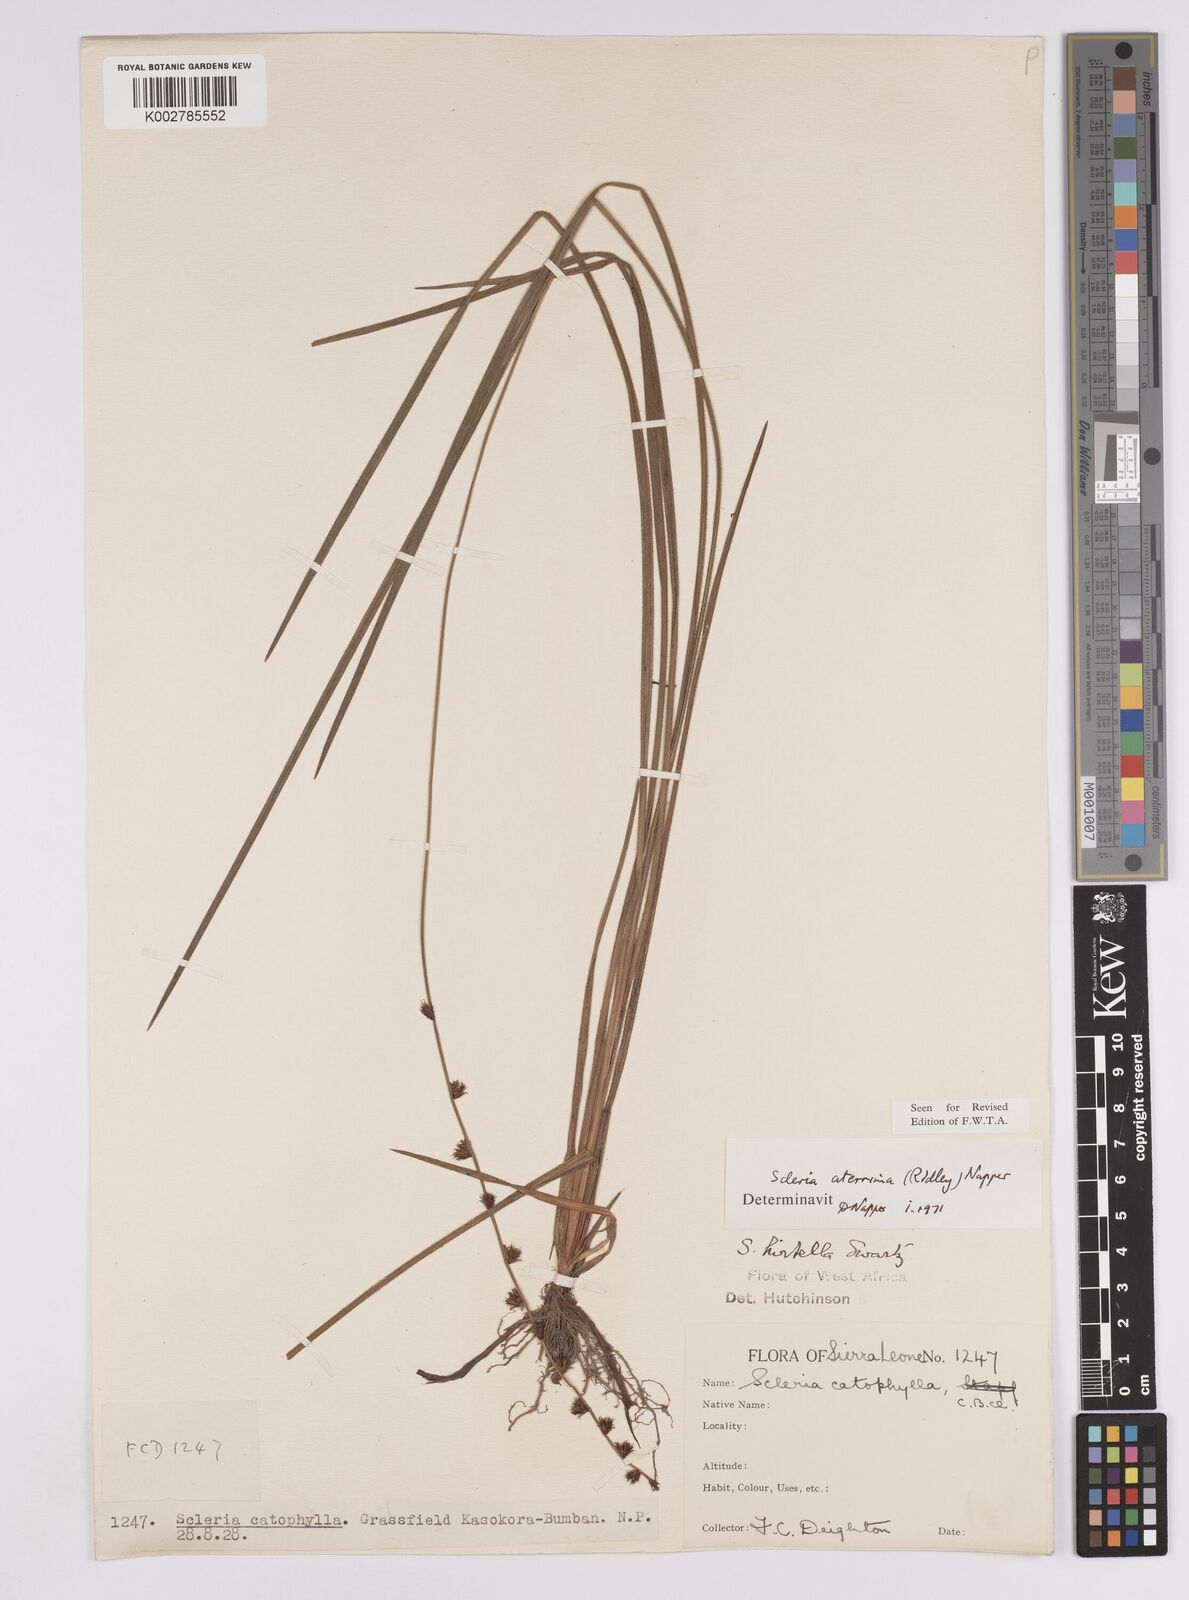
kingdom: Plantae
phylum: Tracheophyta
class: Liliopsida
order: Poales
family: Cyperaceae
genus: Scleria
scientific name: Scleria catophylla
